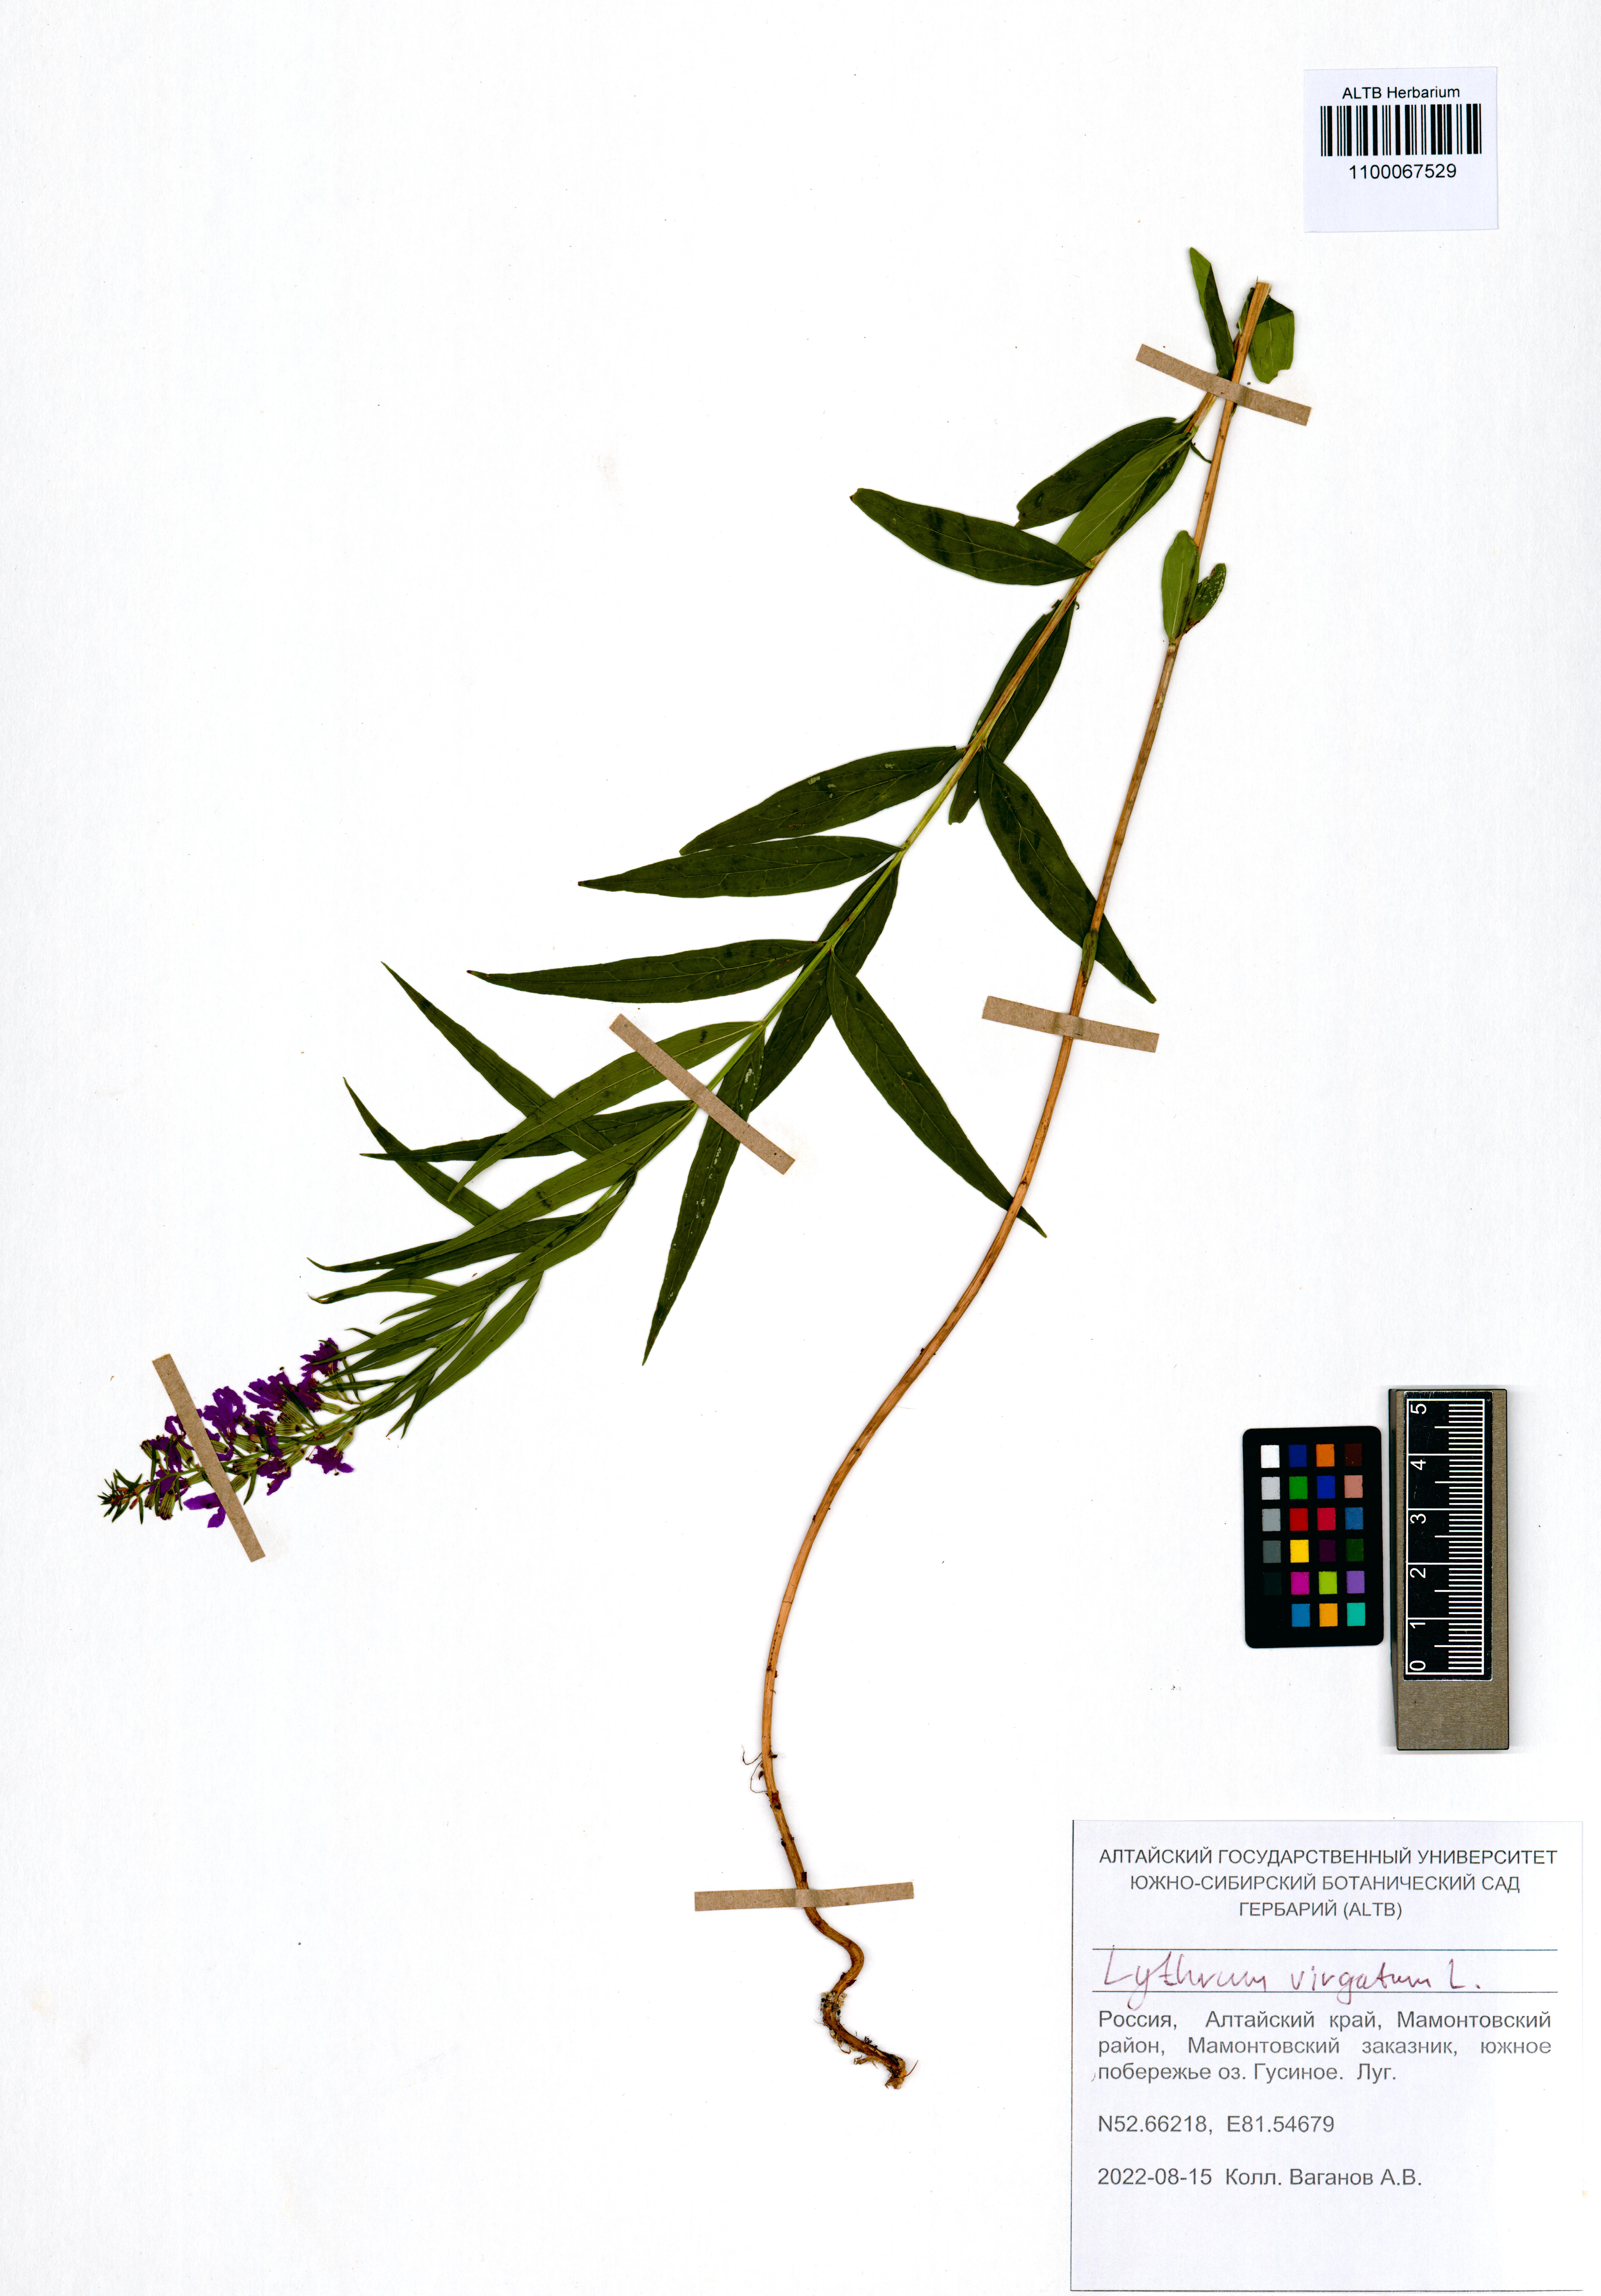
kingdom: Plantae
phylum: Tracheophyta
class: Magnoliopsida
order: Myrtales
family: Lythraceae
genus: Lythrum
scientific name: Lythrum virgatum
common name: European wand loosestrife
